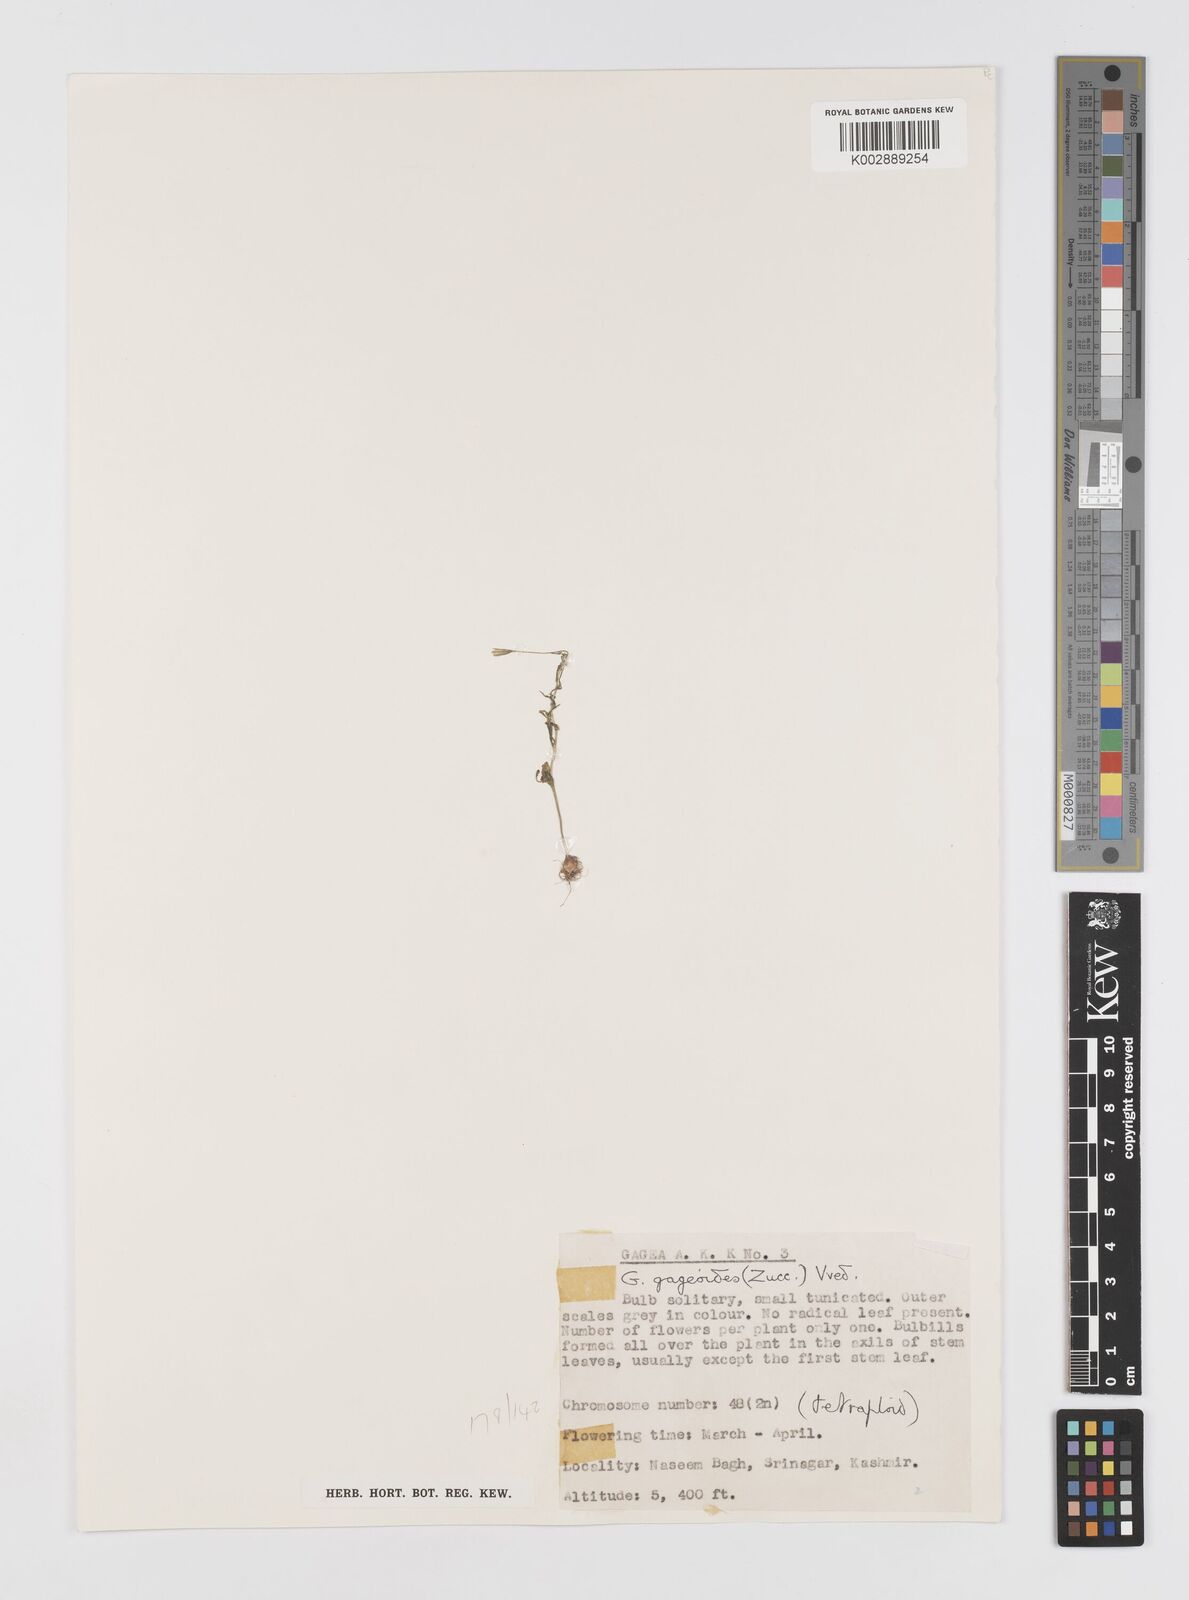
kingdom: Plantae
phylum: Tracheophyta
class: Liliopsida
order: Liliales
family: Liliaceae
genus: Gagea
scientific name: Gagea gageoides
